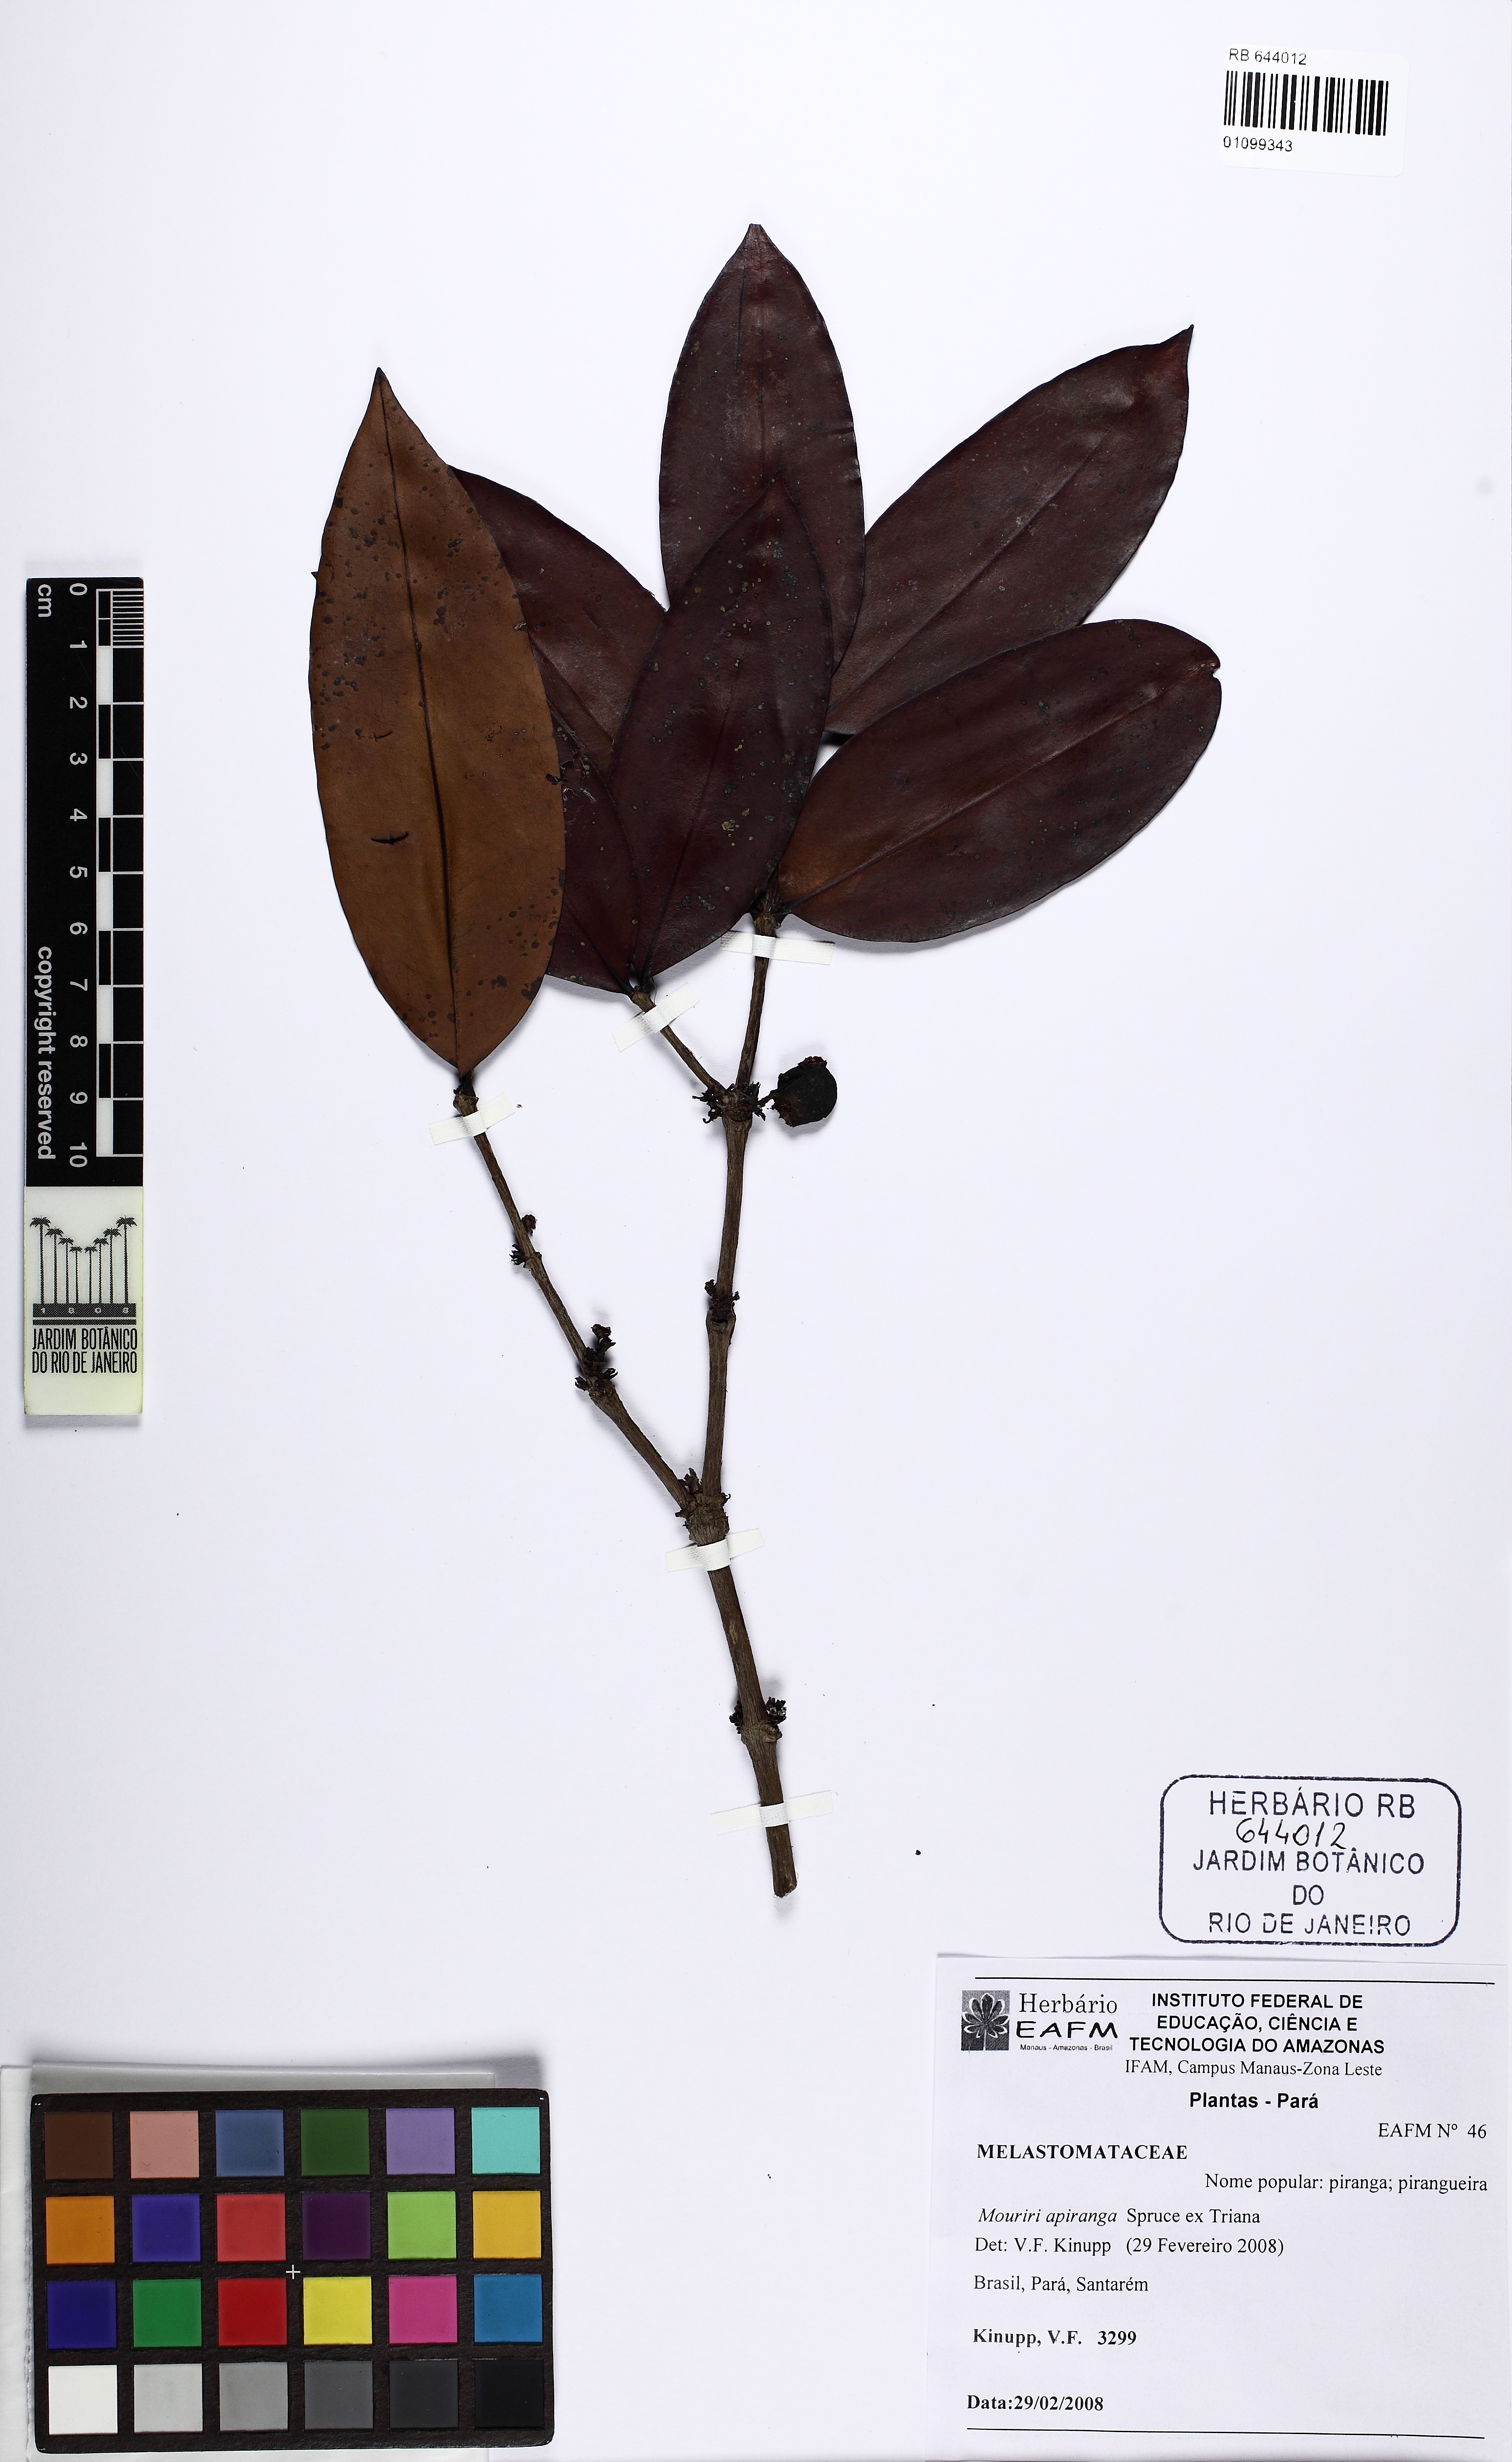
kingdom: Plantae
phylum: Tracheophyta
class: Magnoliopsida
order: Myrtales
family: Melastomataceae
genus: Mouriri
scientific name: Mouriri apiranga
